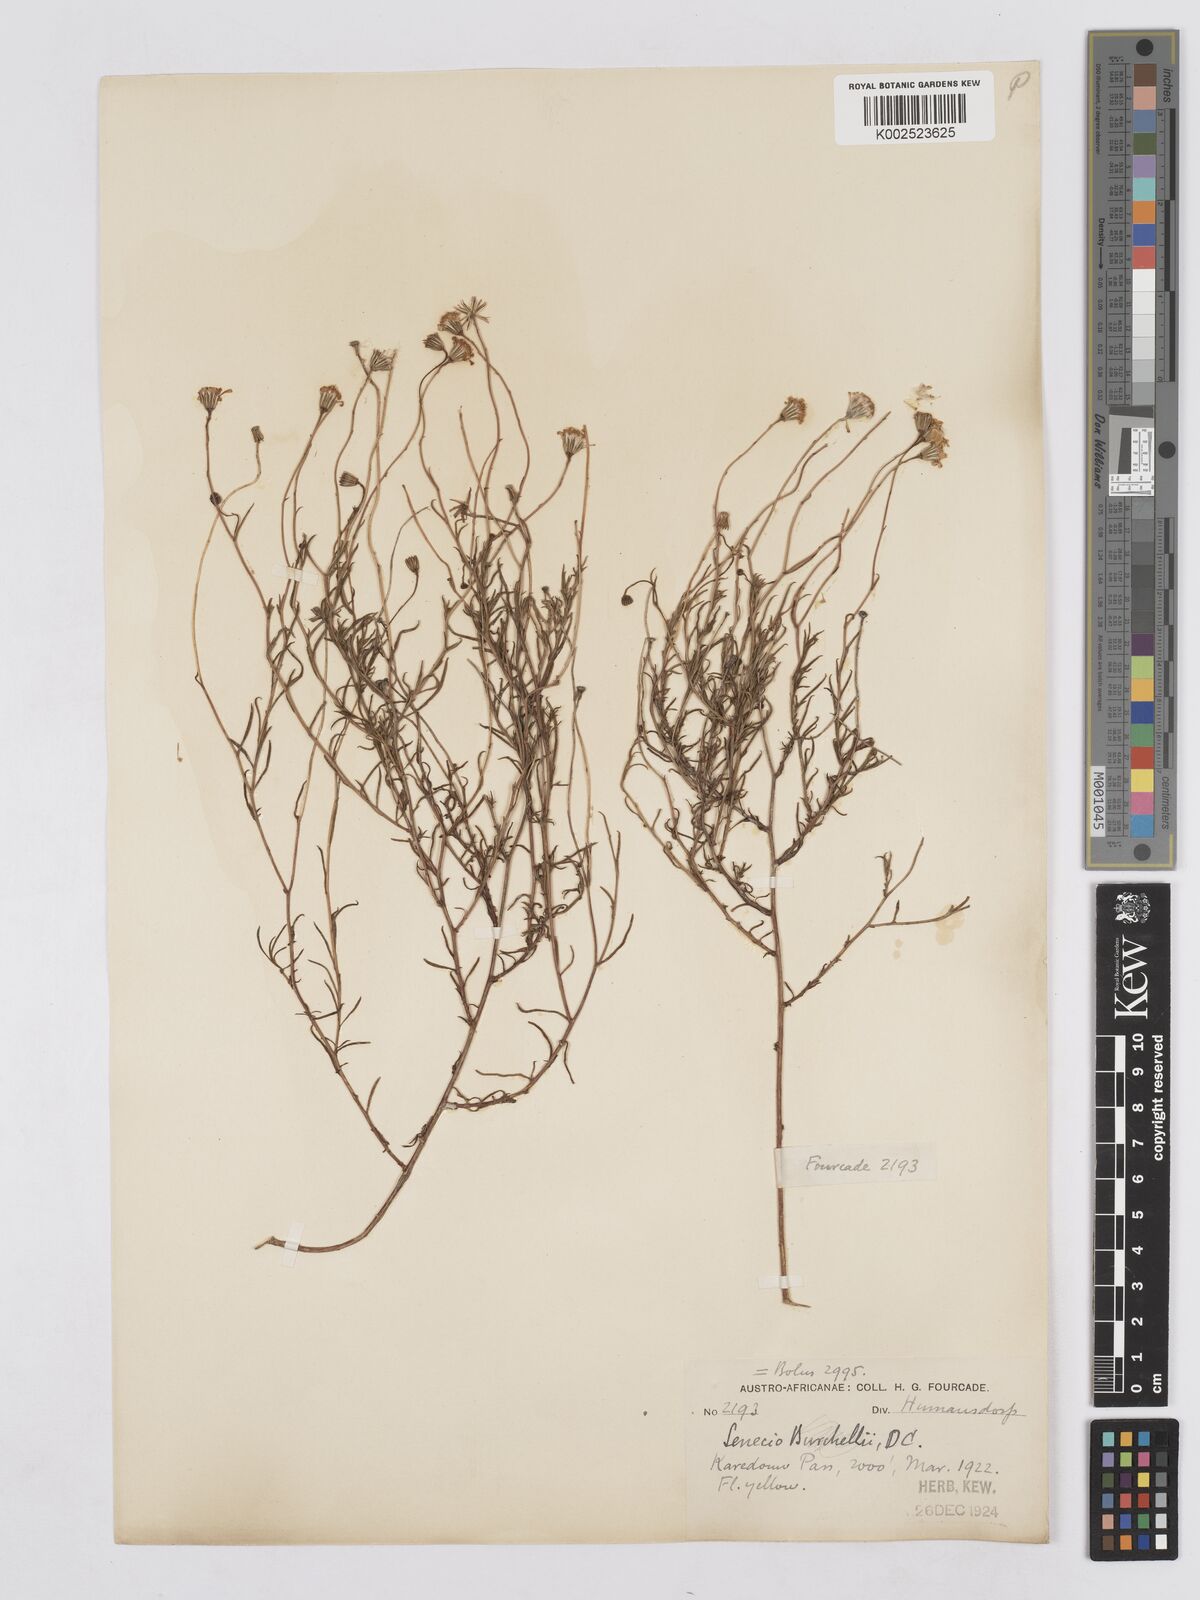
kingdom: Plantae
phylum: Tracheophyta
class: Magnoliopsida
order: Asterales
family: Asteraceae
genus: Senecio
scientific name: Senecio infirmus
